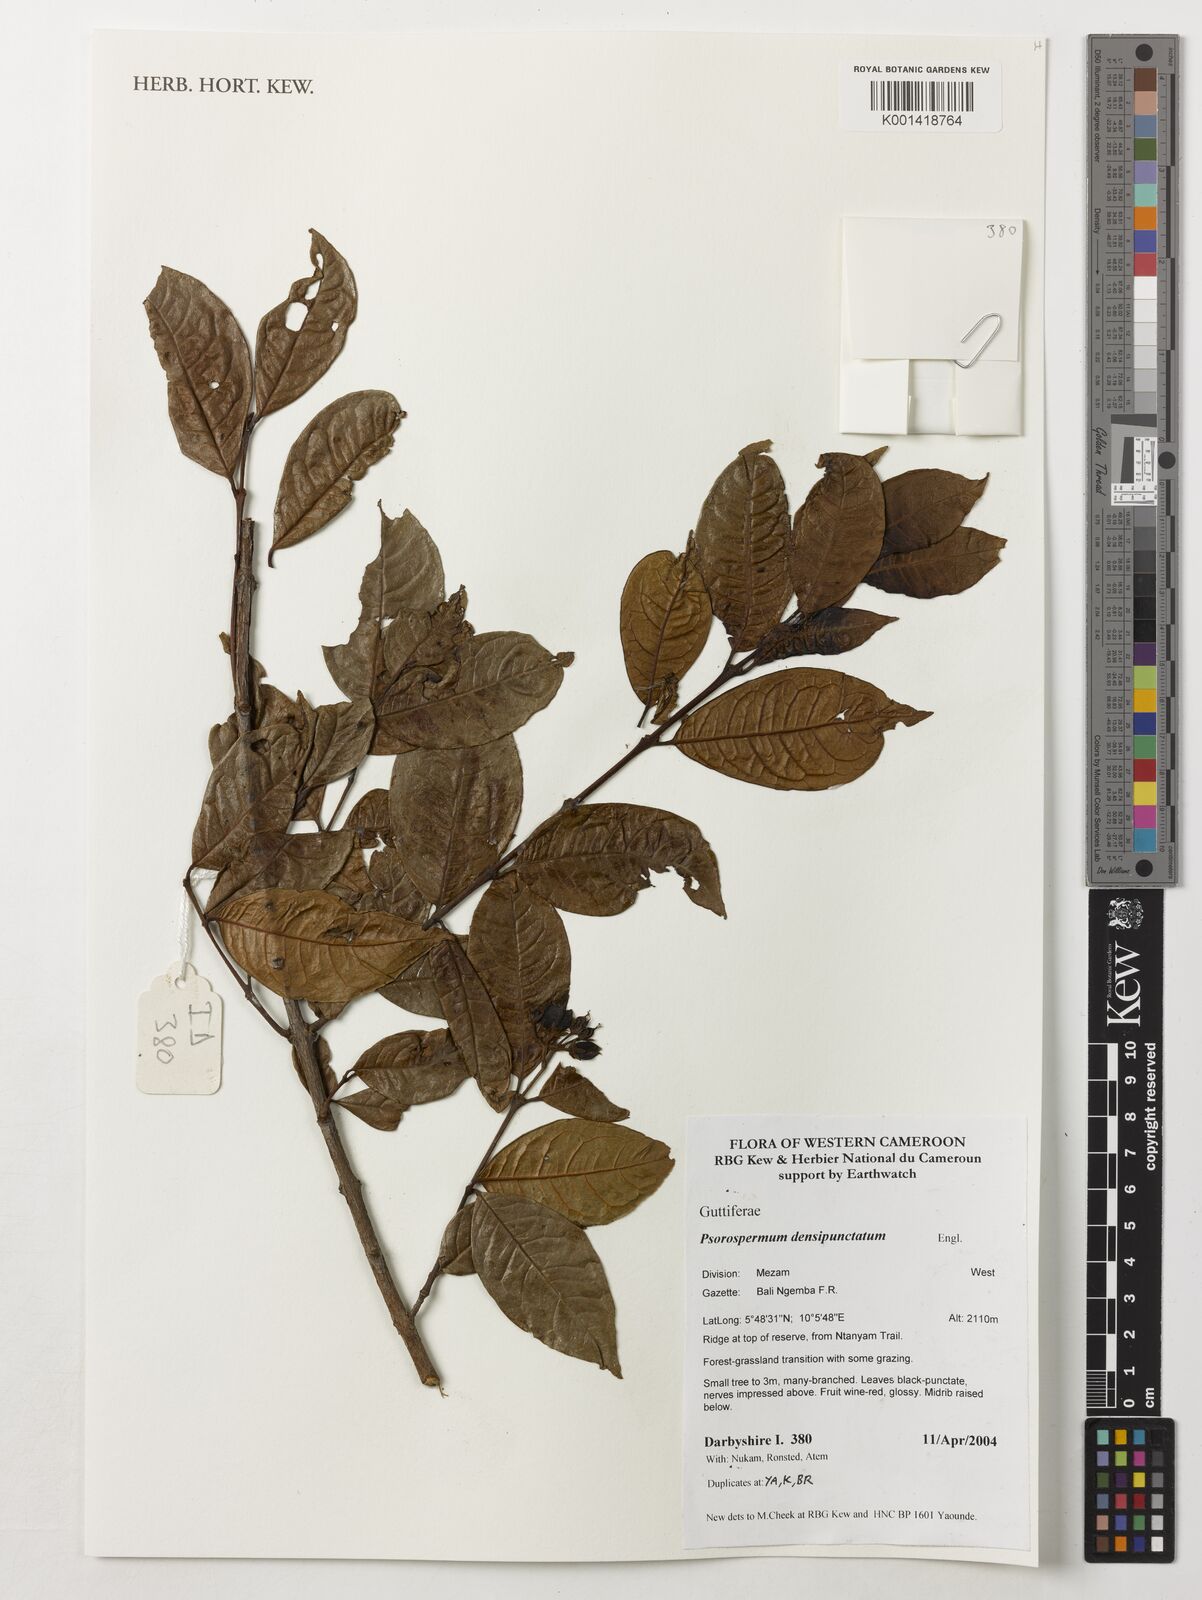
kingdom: Plantae
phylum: Tracheophyta
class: Magnoliopsida
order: Malpighiales
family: Hypericaceae
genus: Psorospermum
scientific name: Psorospermum densipunctatum
